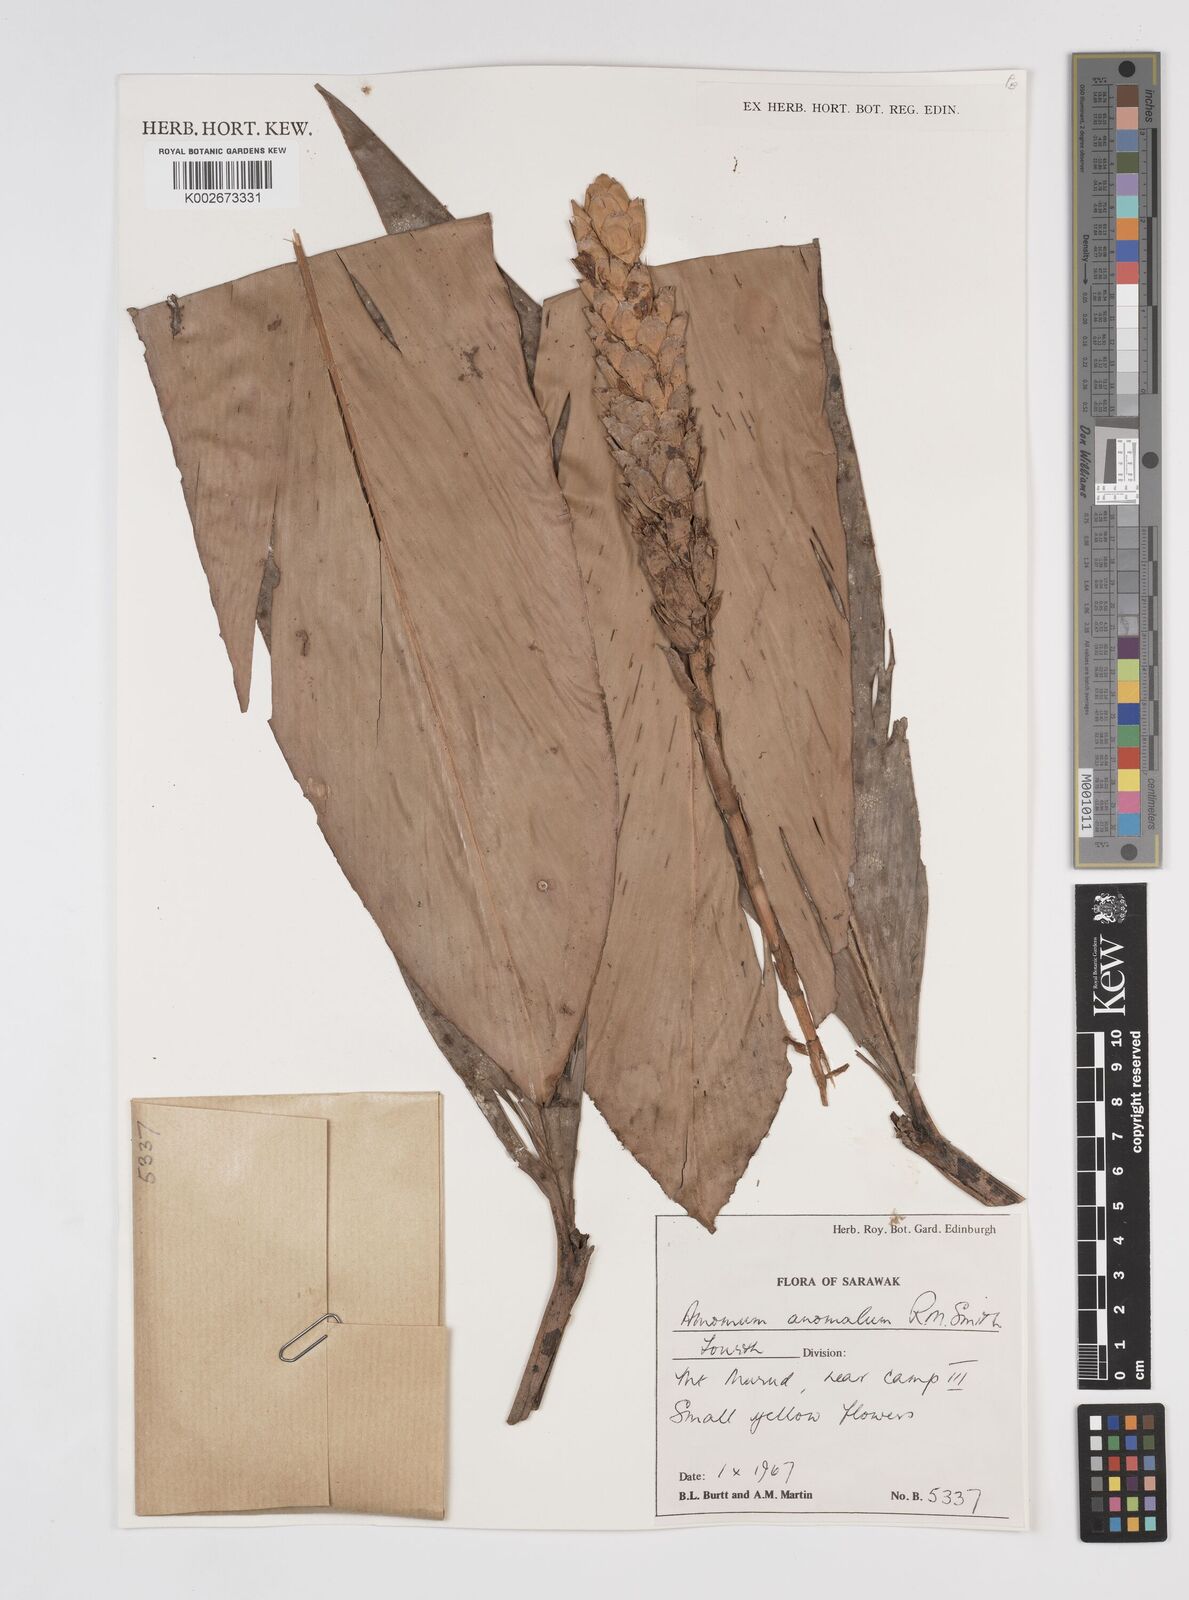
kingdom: Plantae
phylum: Tracheophyta
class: Liliopsida
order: Zingiberales
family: Zingiberaceae
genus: Sulettaria
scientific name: Sulettaria anomala
